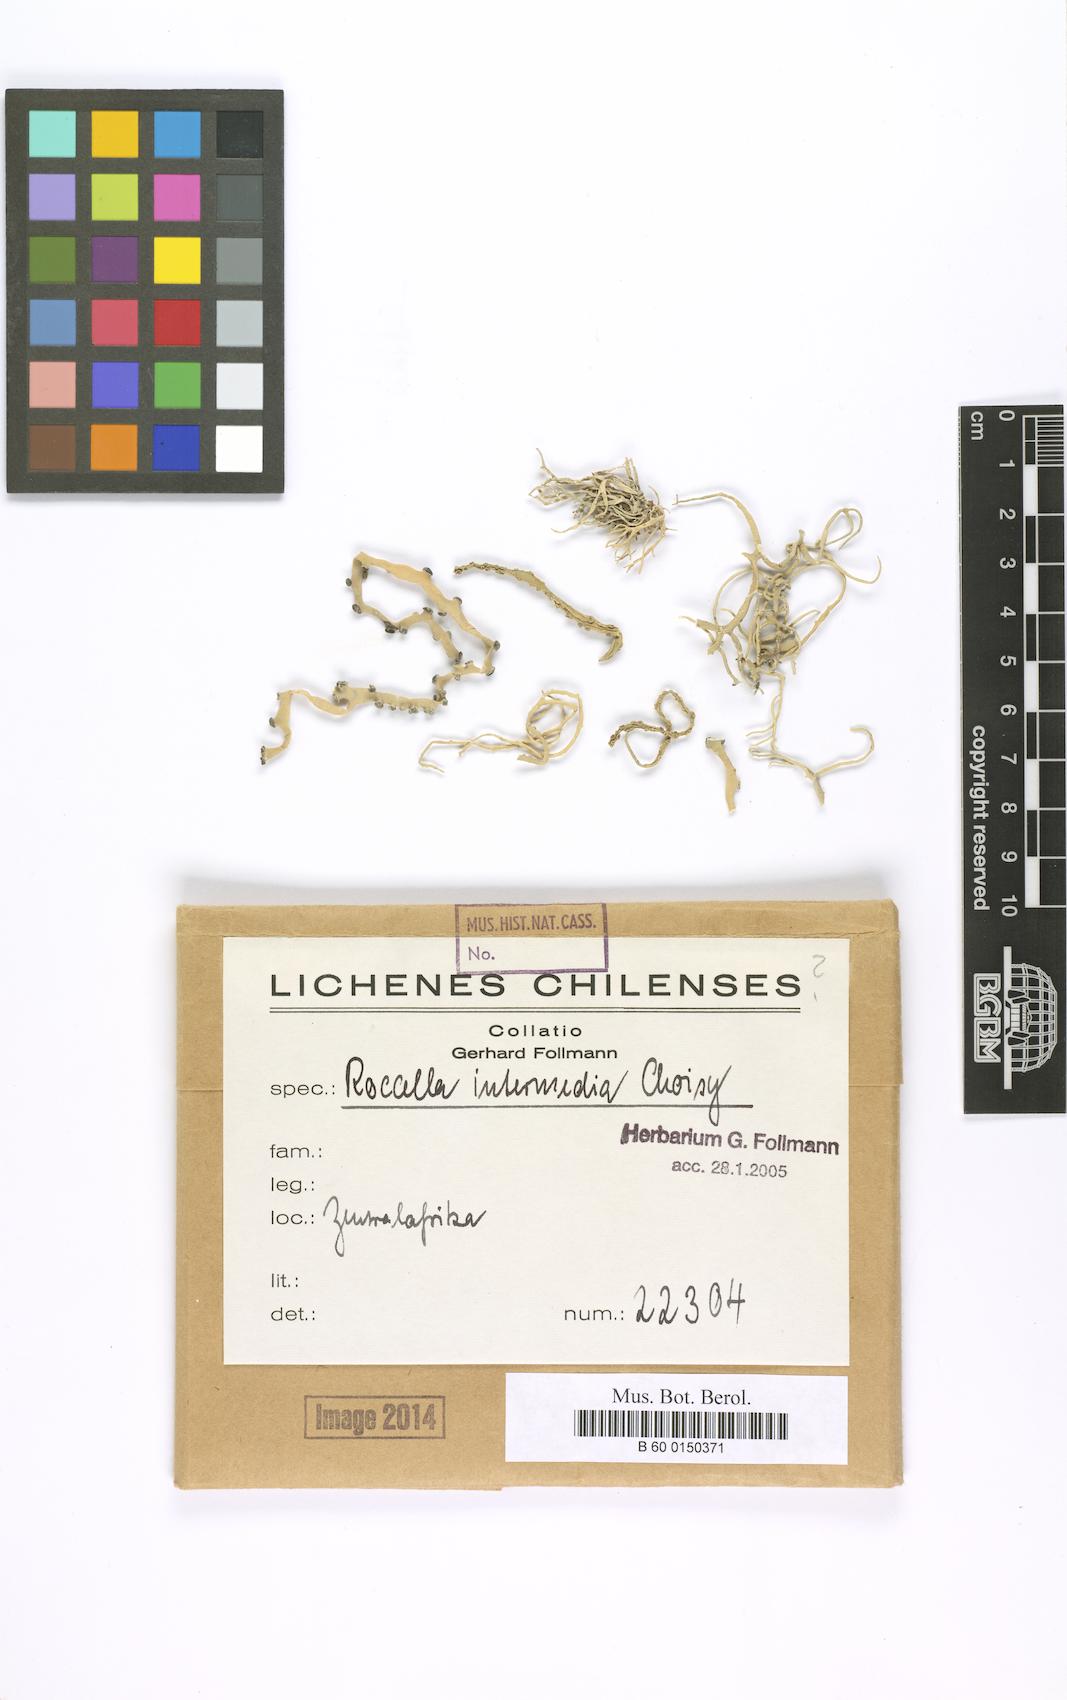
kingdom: Fungi
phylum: Ascomycota
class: Arthoniomycetes
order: Arthoniales
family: Roccellaceae
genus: Roccella
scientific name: Roccella
